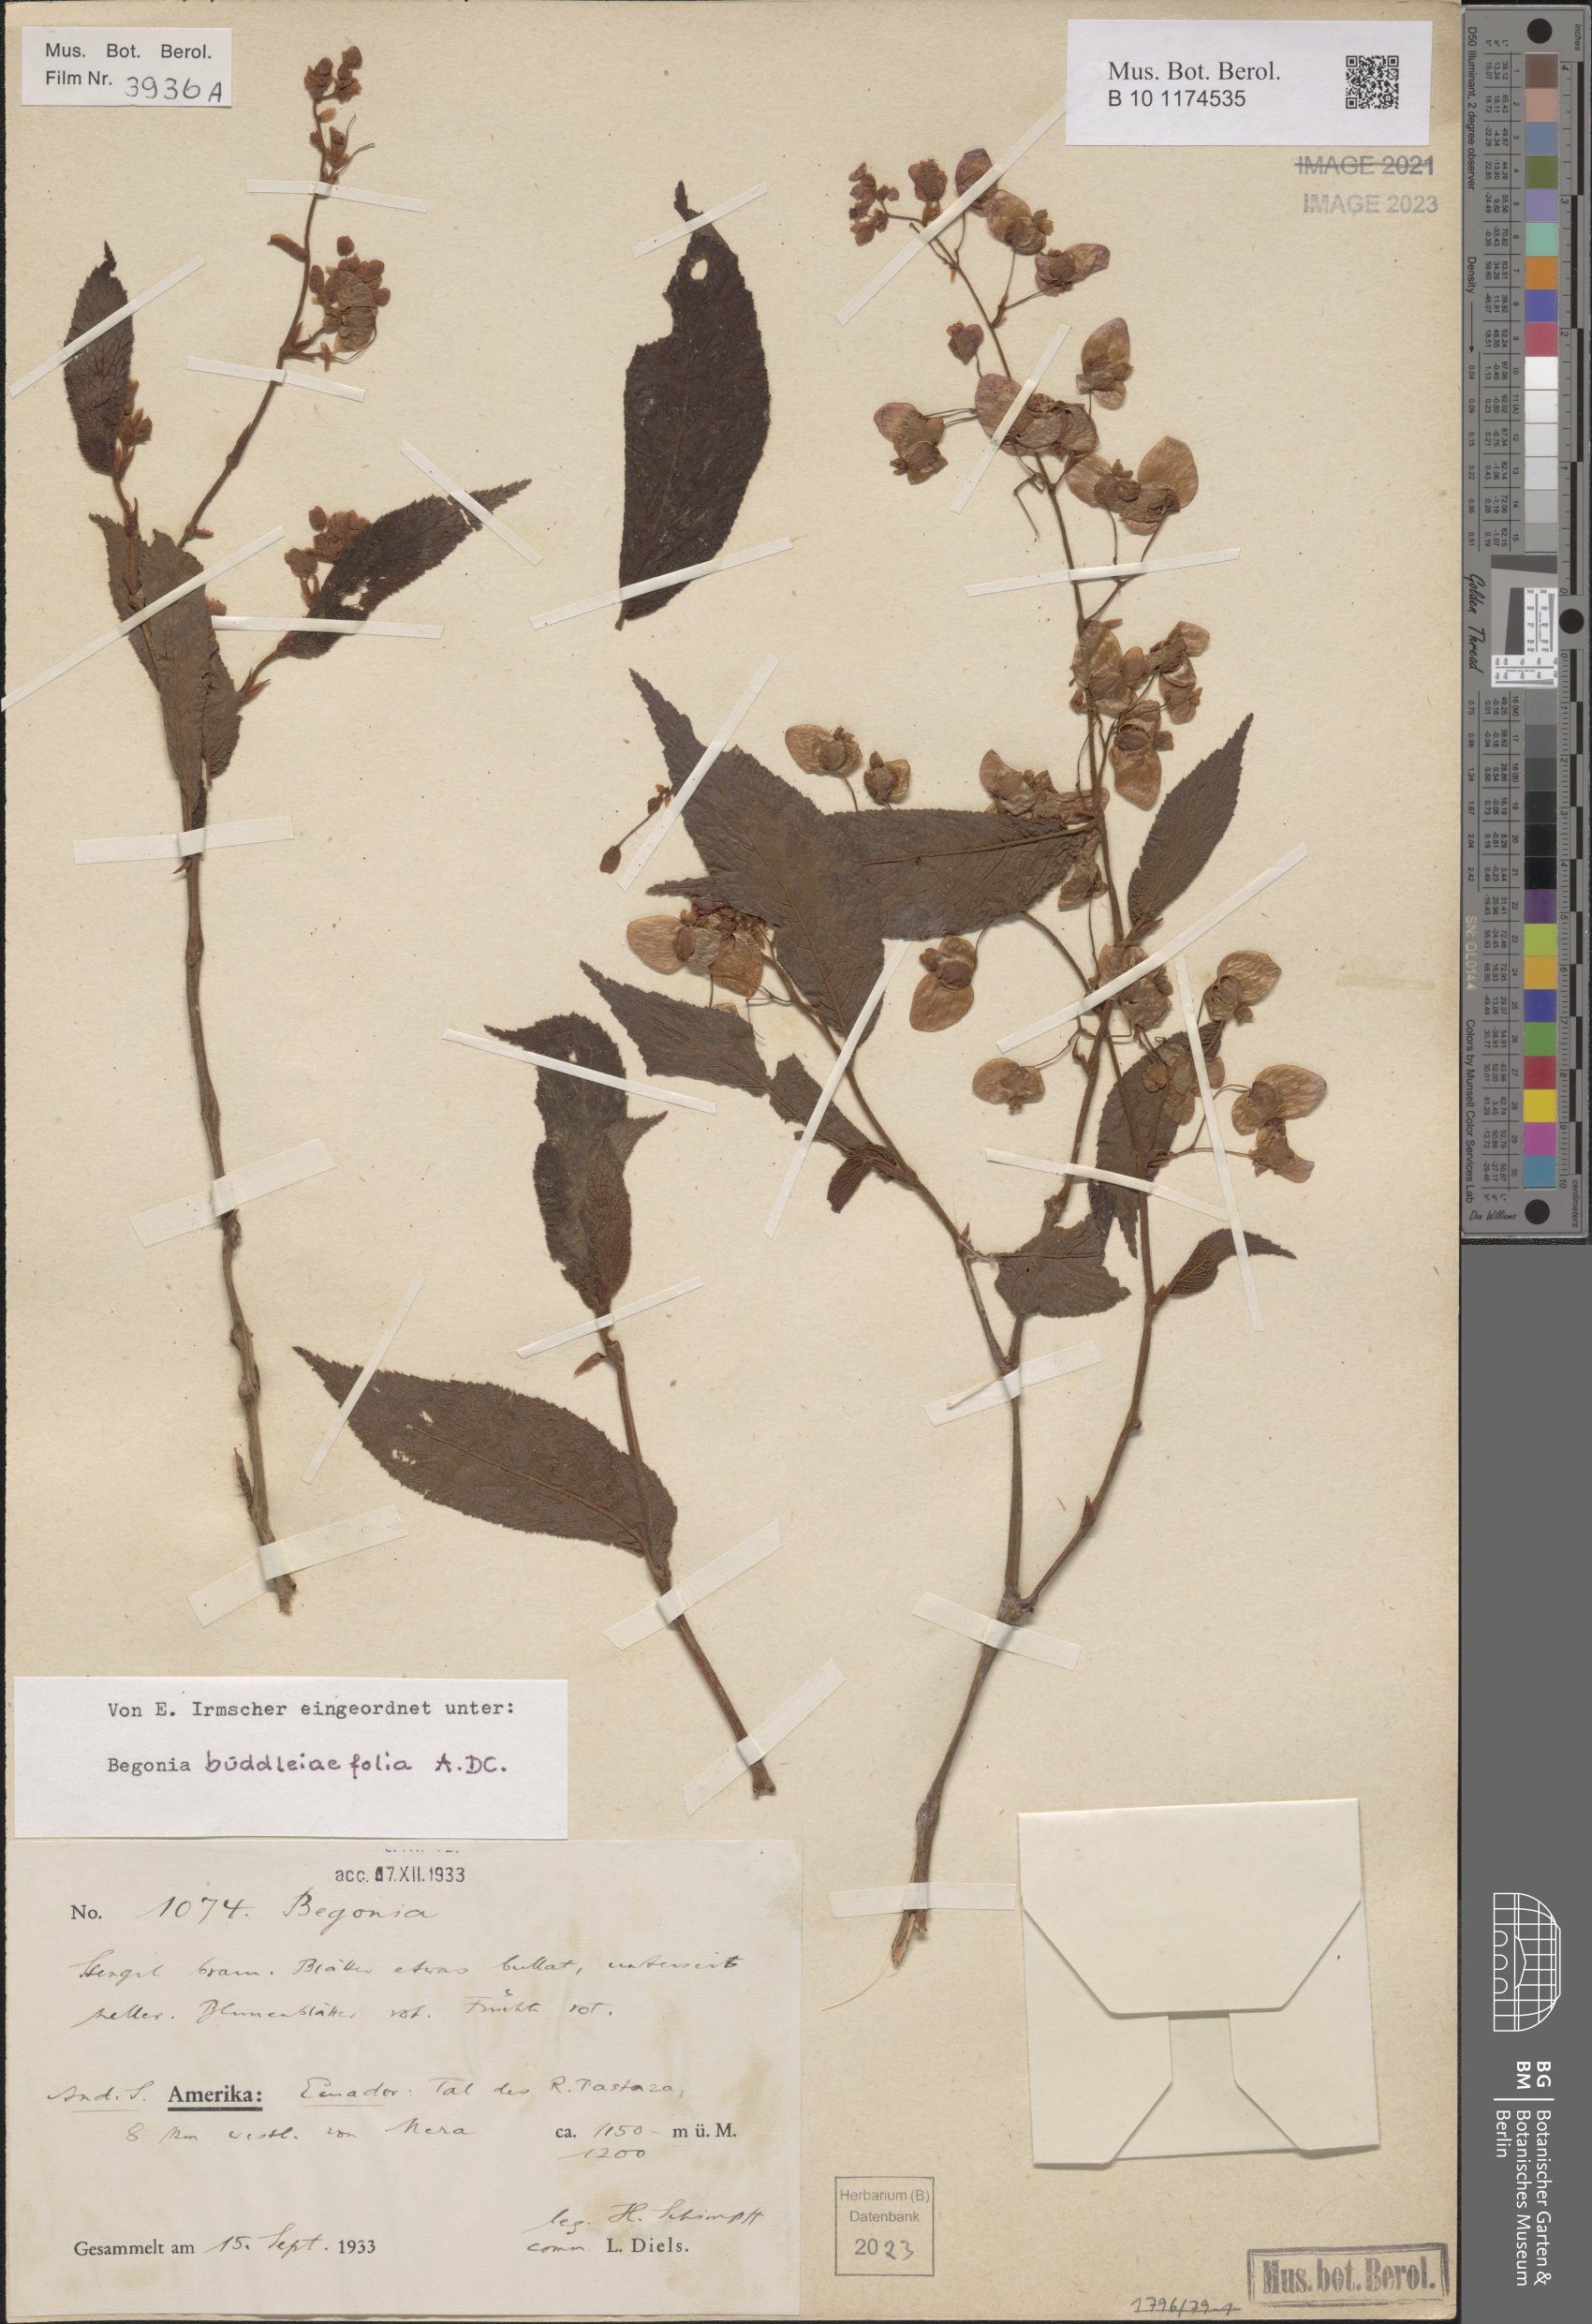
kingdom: Plantae
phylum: Tracheophyta
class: Magnoliopsida
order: Cucurbitales
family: Begoniaceae
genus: Begonia
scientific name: Begonia buddleiifolia
